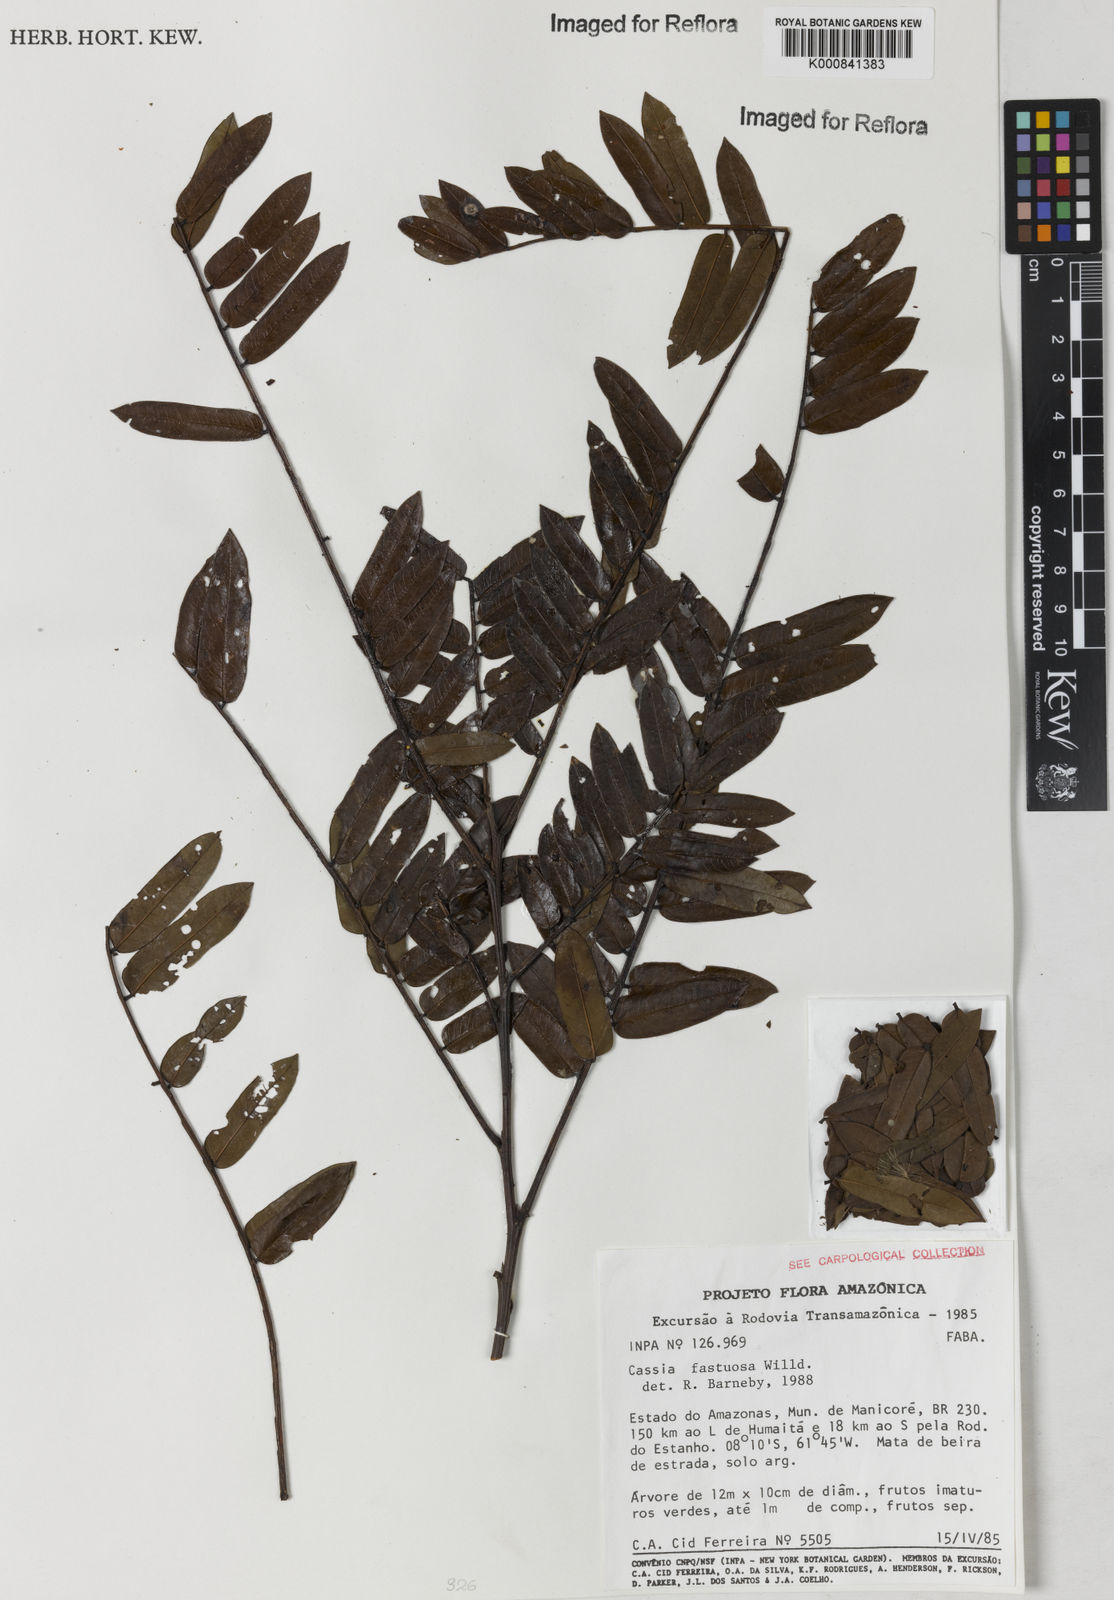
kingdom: Plantae
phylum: Tracheophyta
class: Magnoliopsida
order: Fabales
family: Fabaceae
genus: Cassia
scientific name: Cassia
